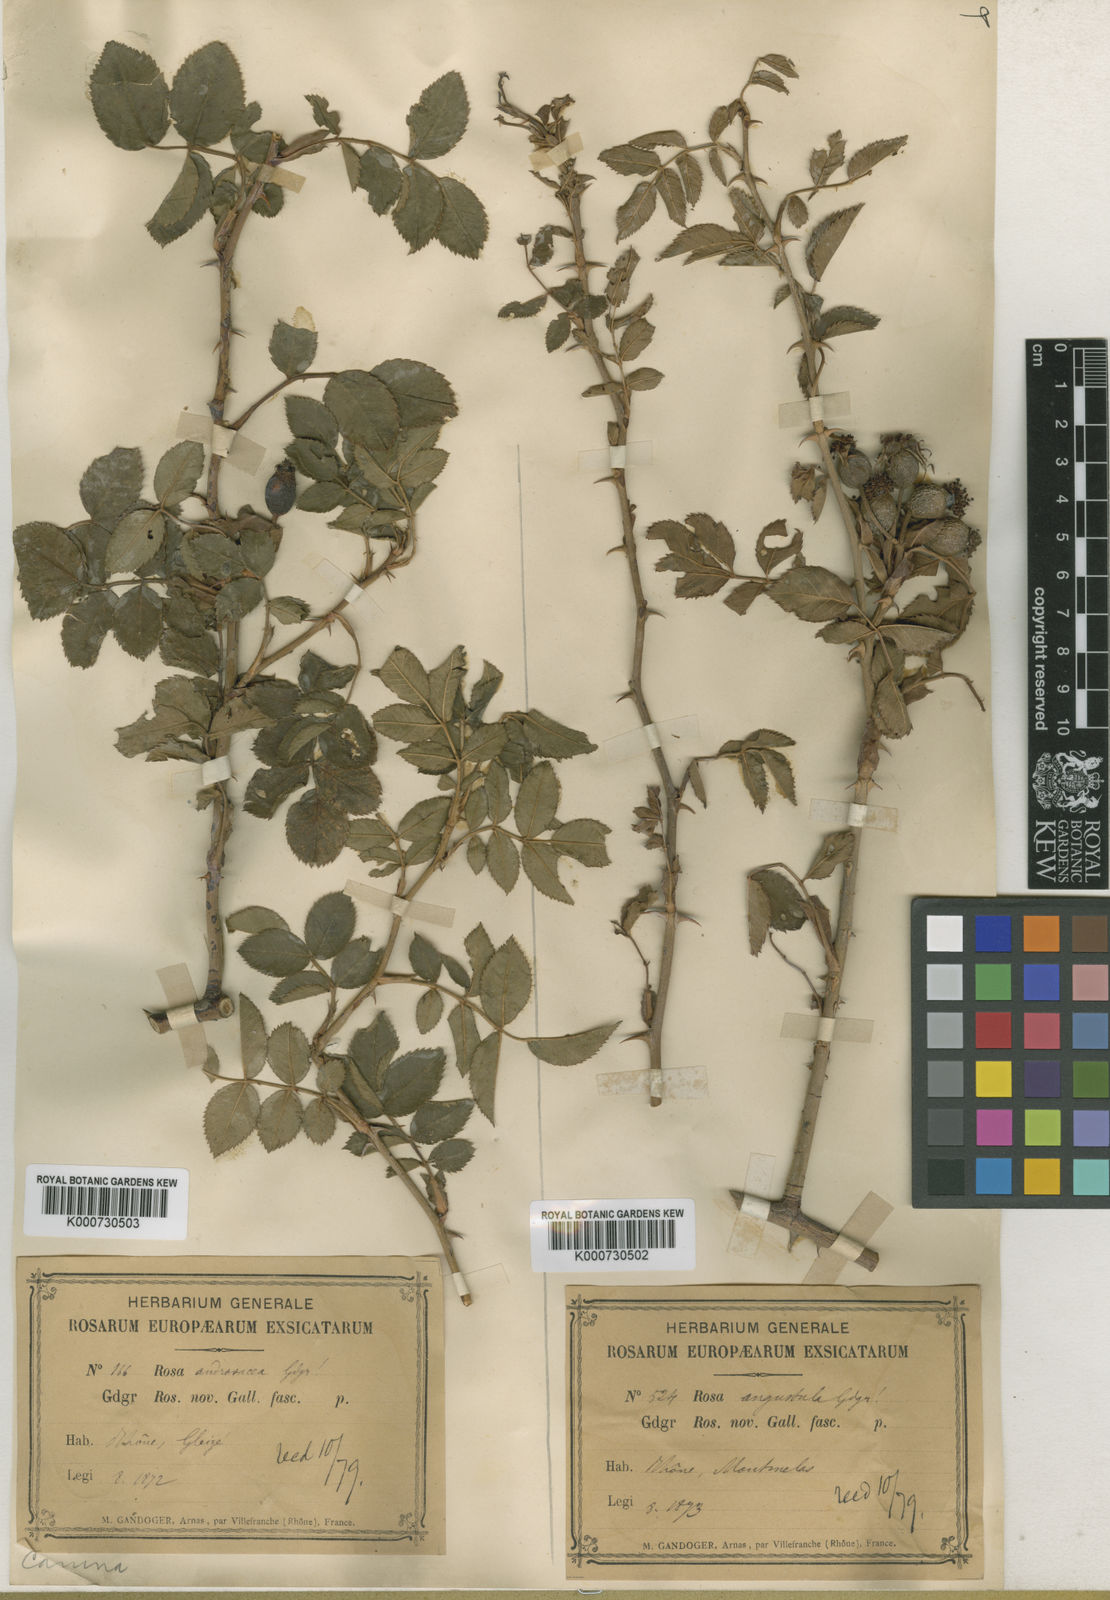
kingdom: Plantae
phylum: Tracheophyta
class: Magnoliopsida
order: Rosales
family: Rosaceae
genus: Rosa
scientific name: Rosa canina
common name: Dog rose
